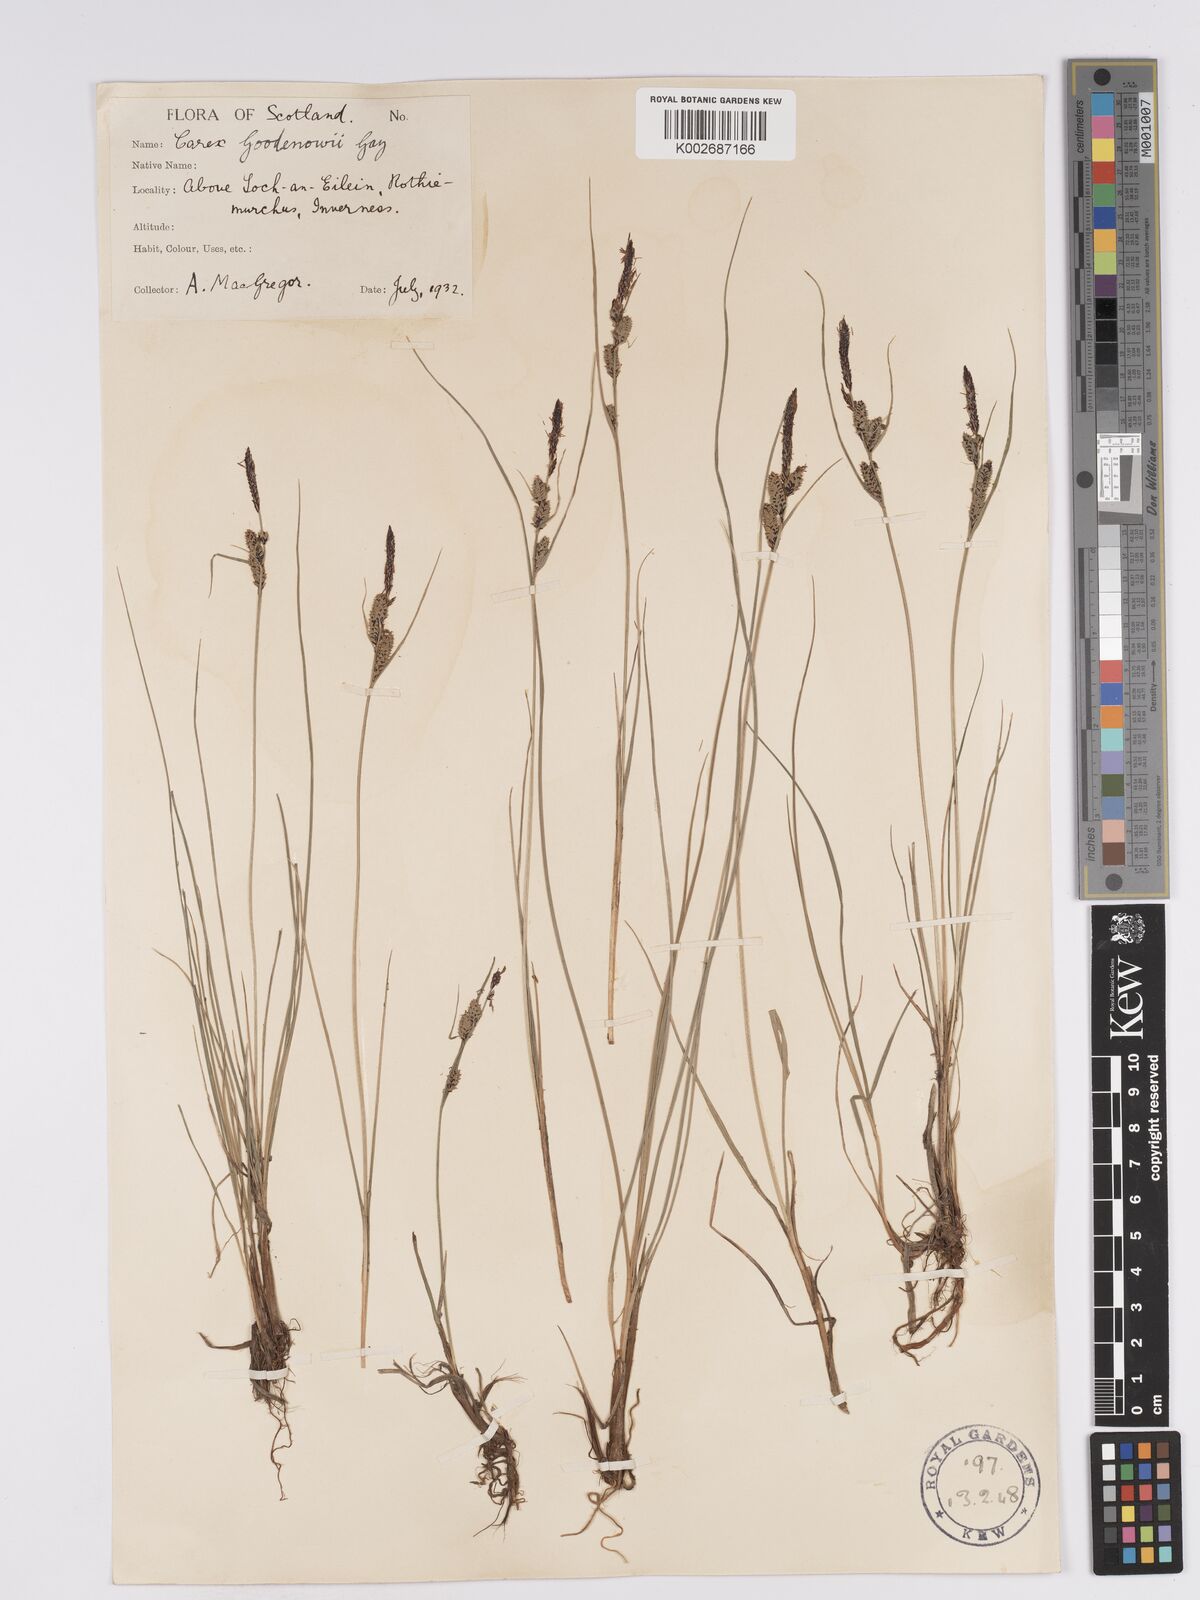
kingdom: Plantae
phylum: Tracheophyta
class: Liliopsida
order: Poales
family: Cyperaceae
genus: Carex
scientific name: Carex nigra
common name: Common sedge
